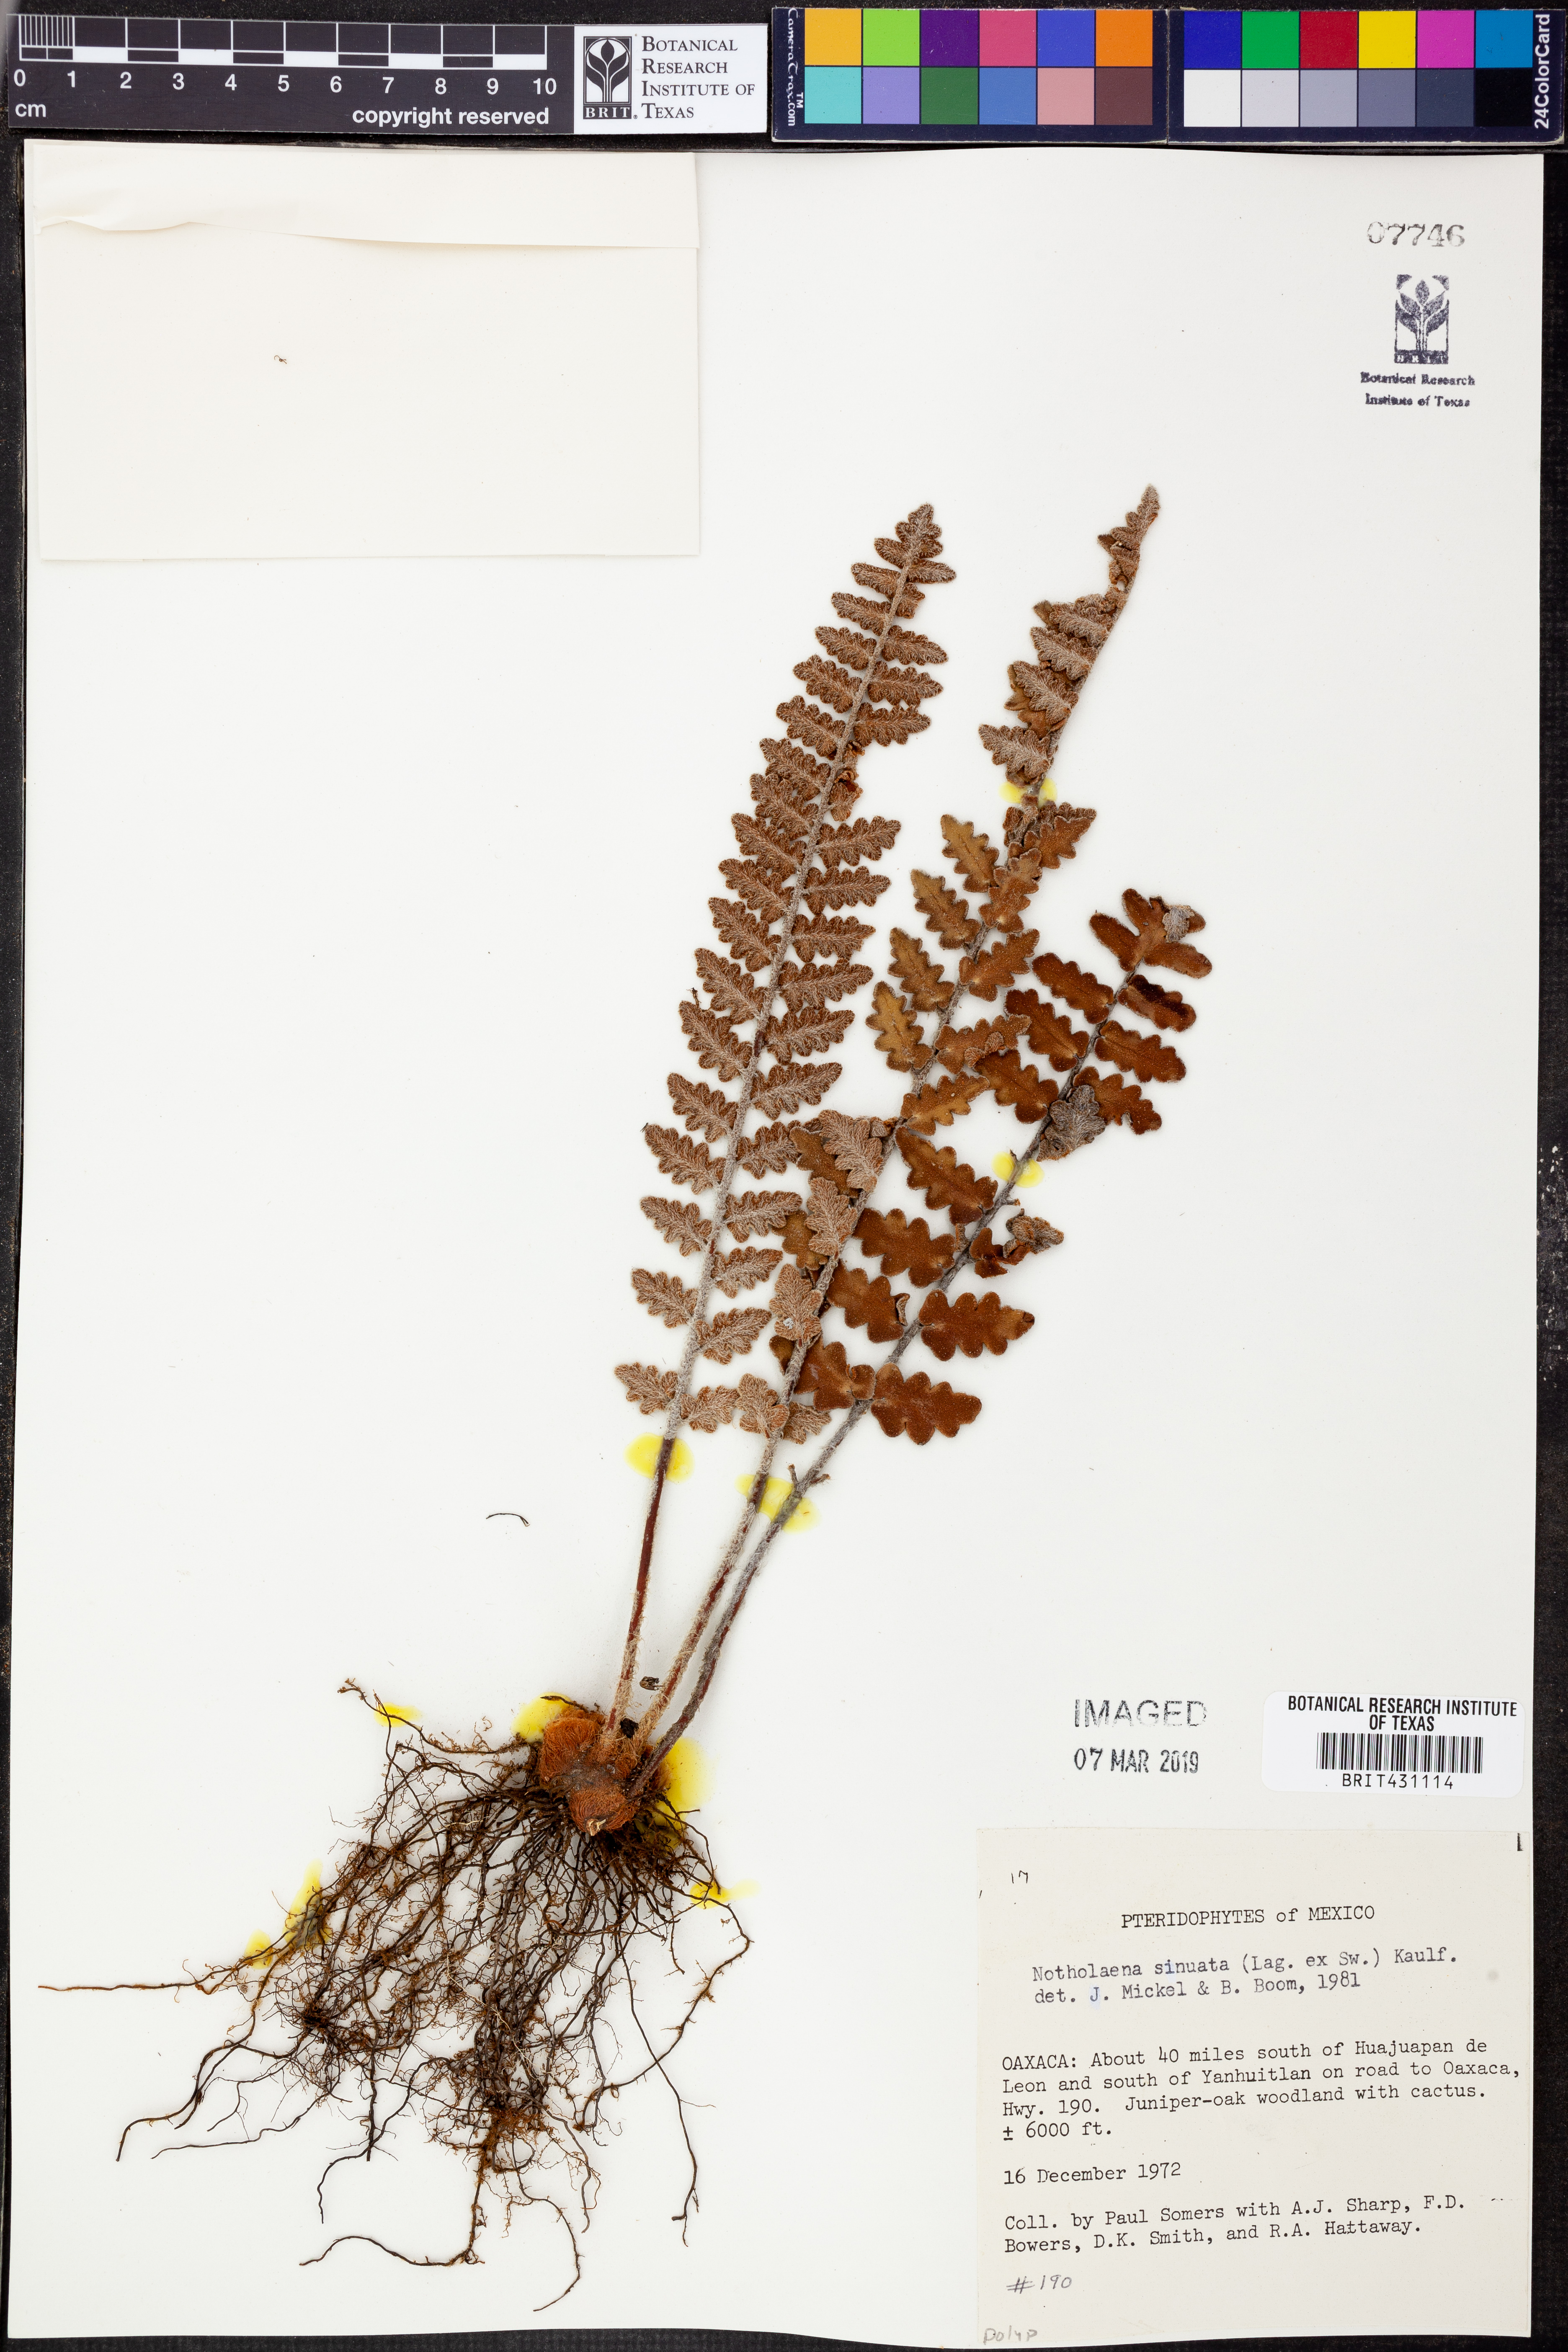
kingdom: Plantae
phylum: Tracheophyta
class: Polypodiopsida
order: Polypodiales
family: Pteridaceae
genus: Astrolepis
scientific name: Astrolepis sinuata
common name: Wavy scaly cloakfern
